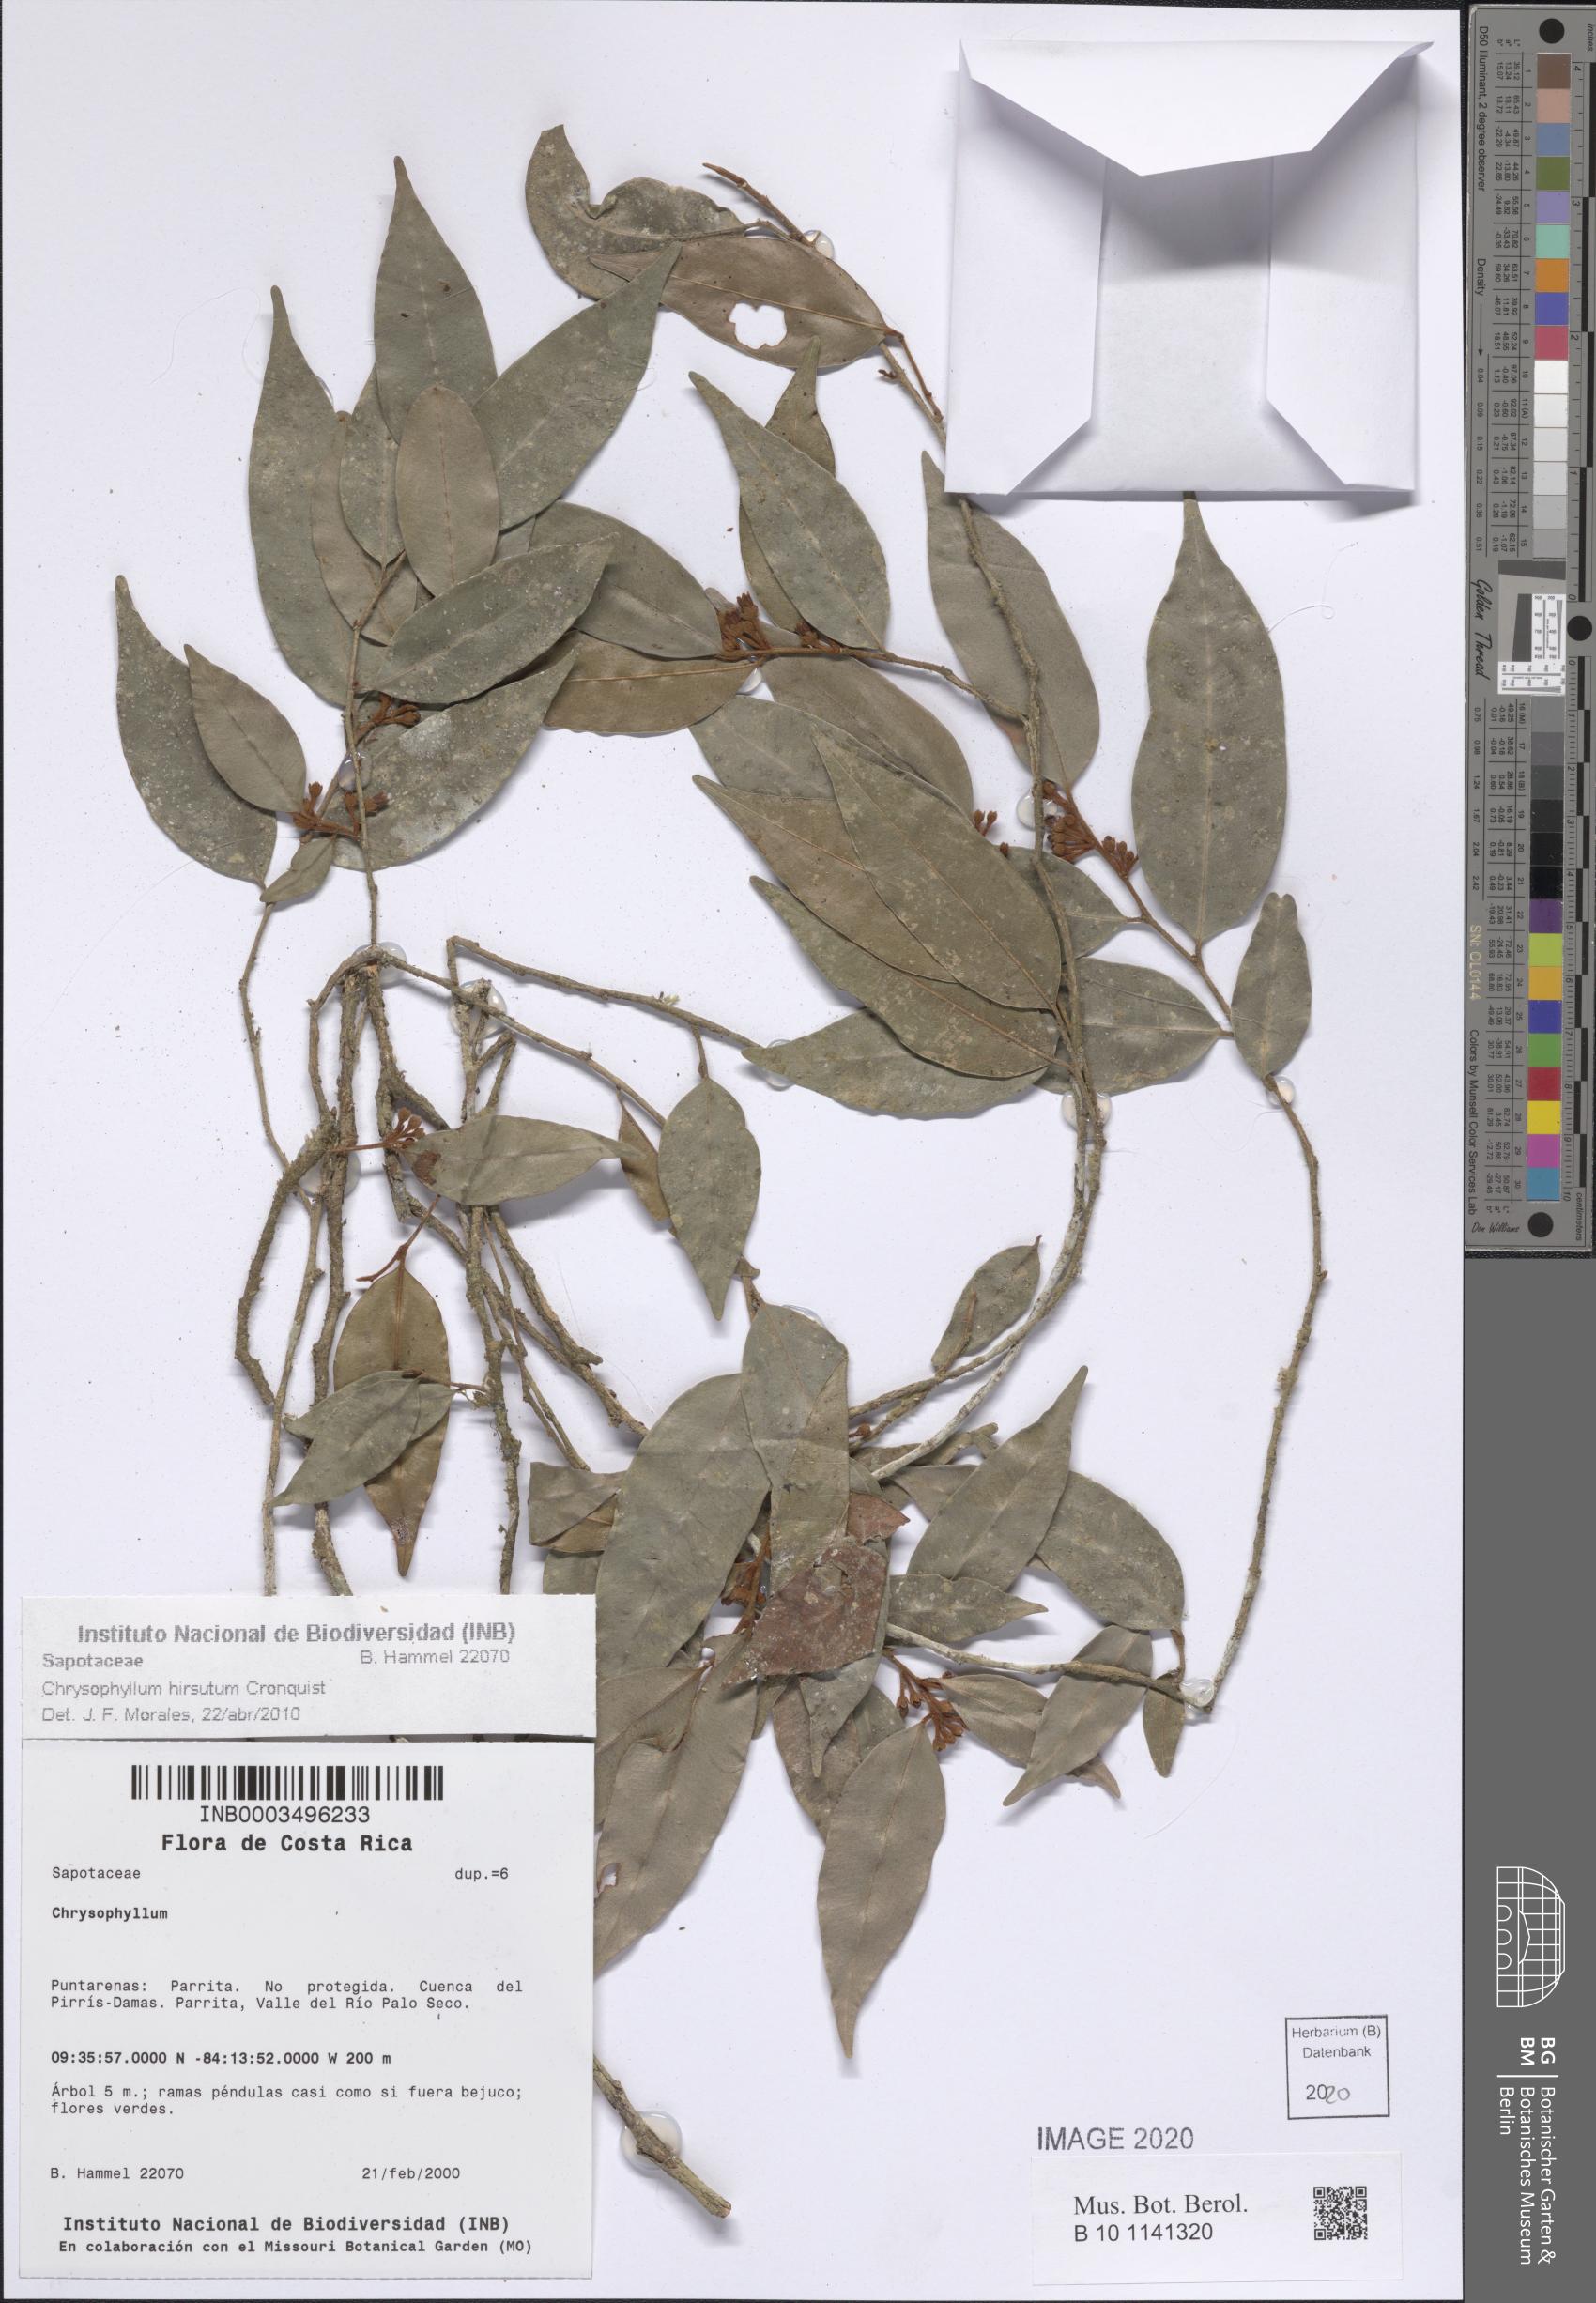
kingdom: Plantae
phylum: Tracheophyta
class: Magnoliopsida
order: Ericales
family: Sapotaceae
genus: Chrysophyllum
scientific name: Chrysophyllum hirsutum
